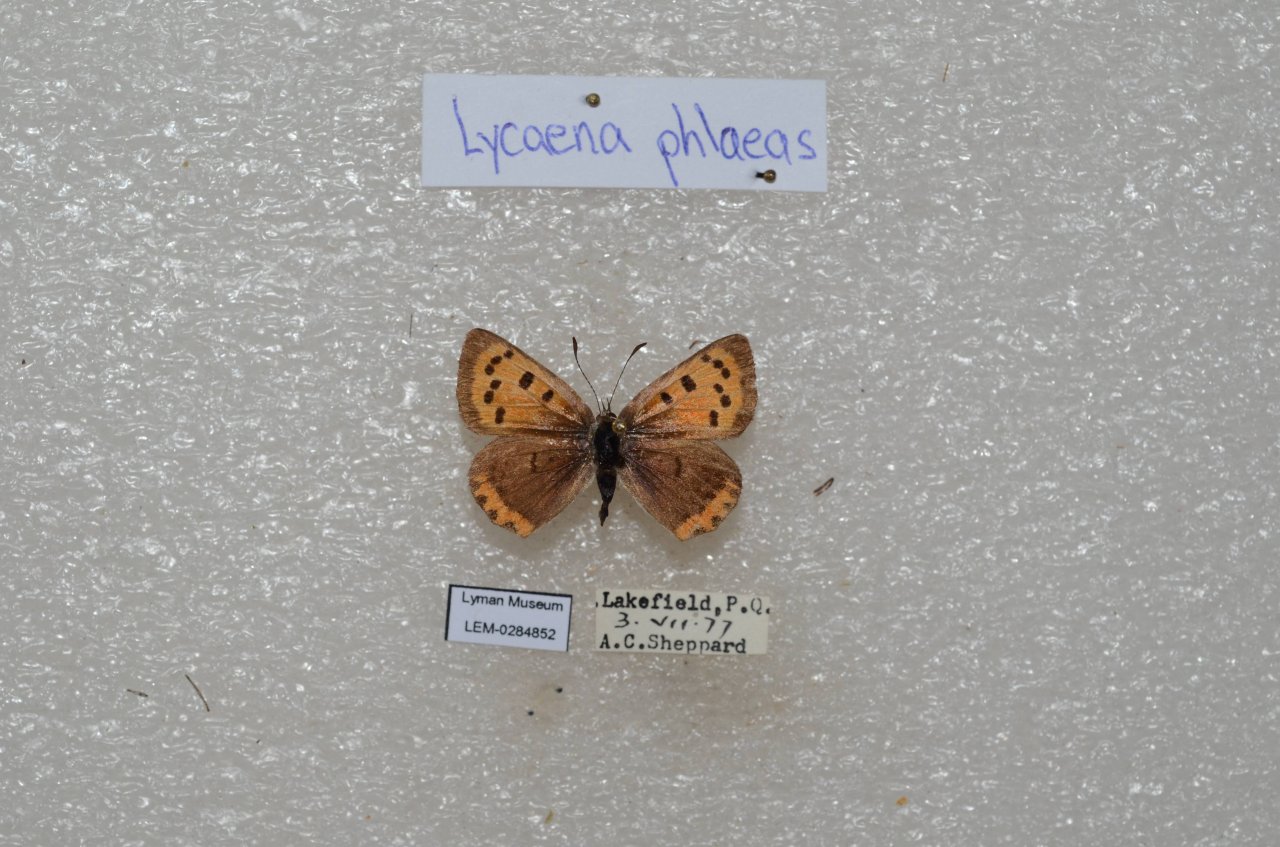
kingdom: Animalia
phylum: Arthropoda
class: Insecta
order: Lepidoptera
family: Lycaenidae
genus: Lycaena
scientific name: Lycaena phlaeas
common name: American Copper
